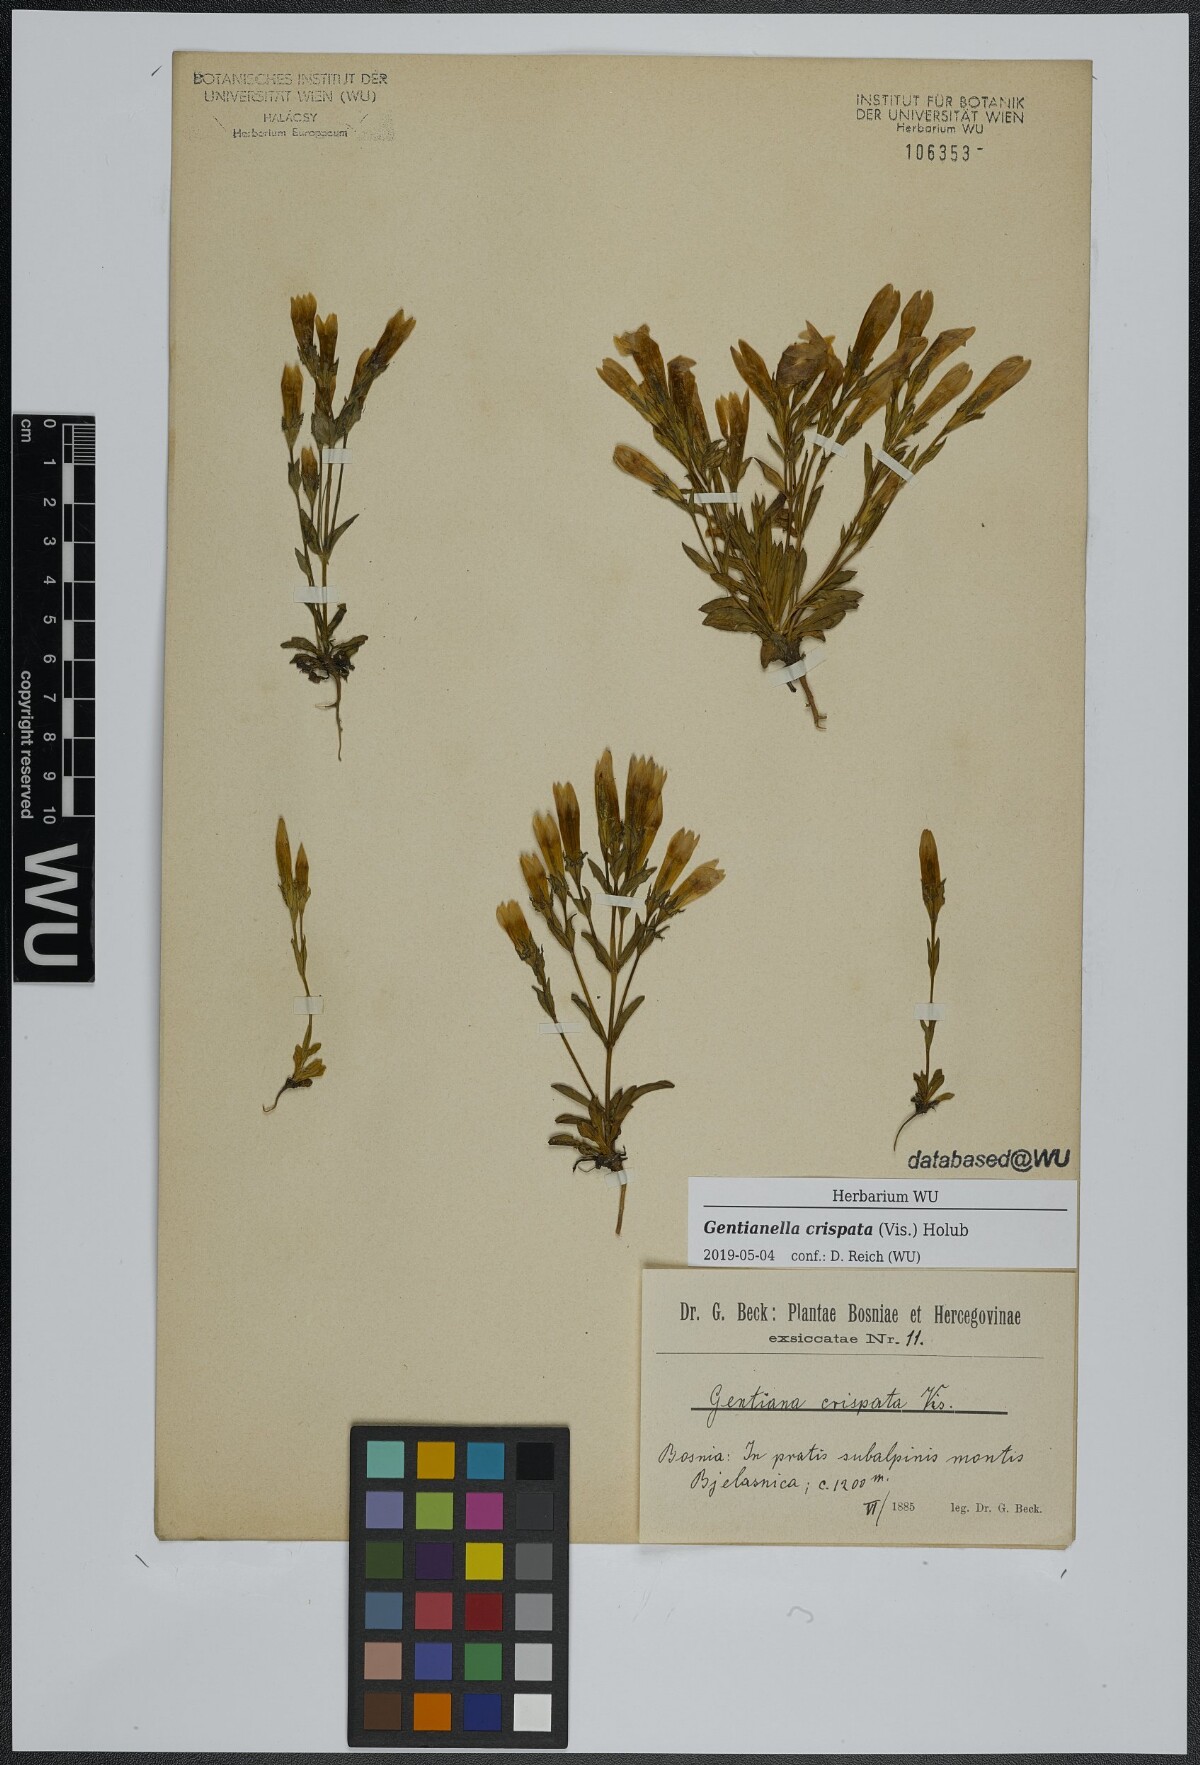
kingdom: Plantae
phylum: Tracheophyta
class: Magnoliopsida
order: Gentianales
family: Gentianaceae
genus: Gentianella
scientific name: Gentianella crispata
